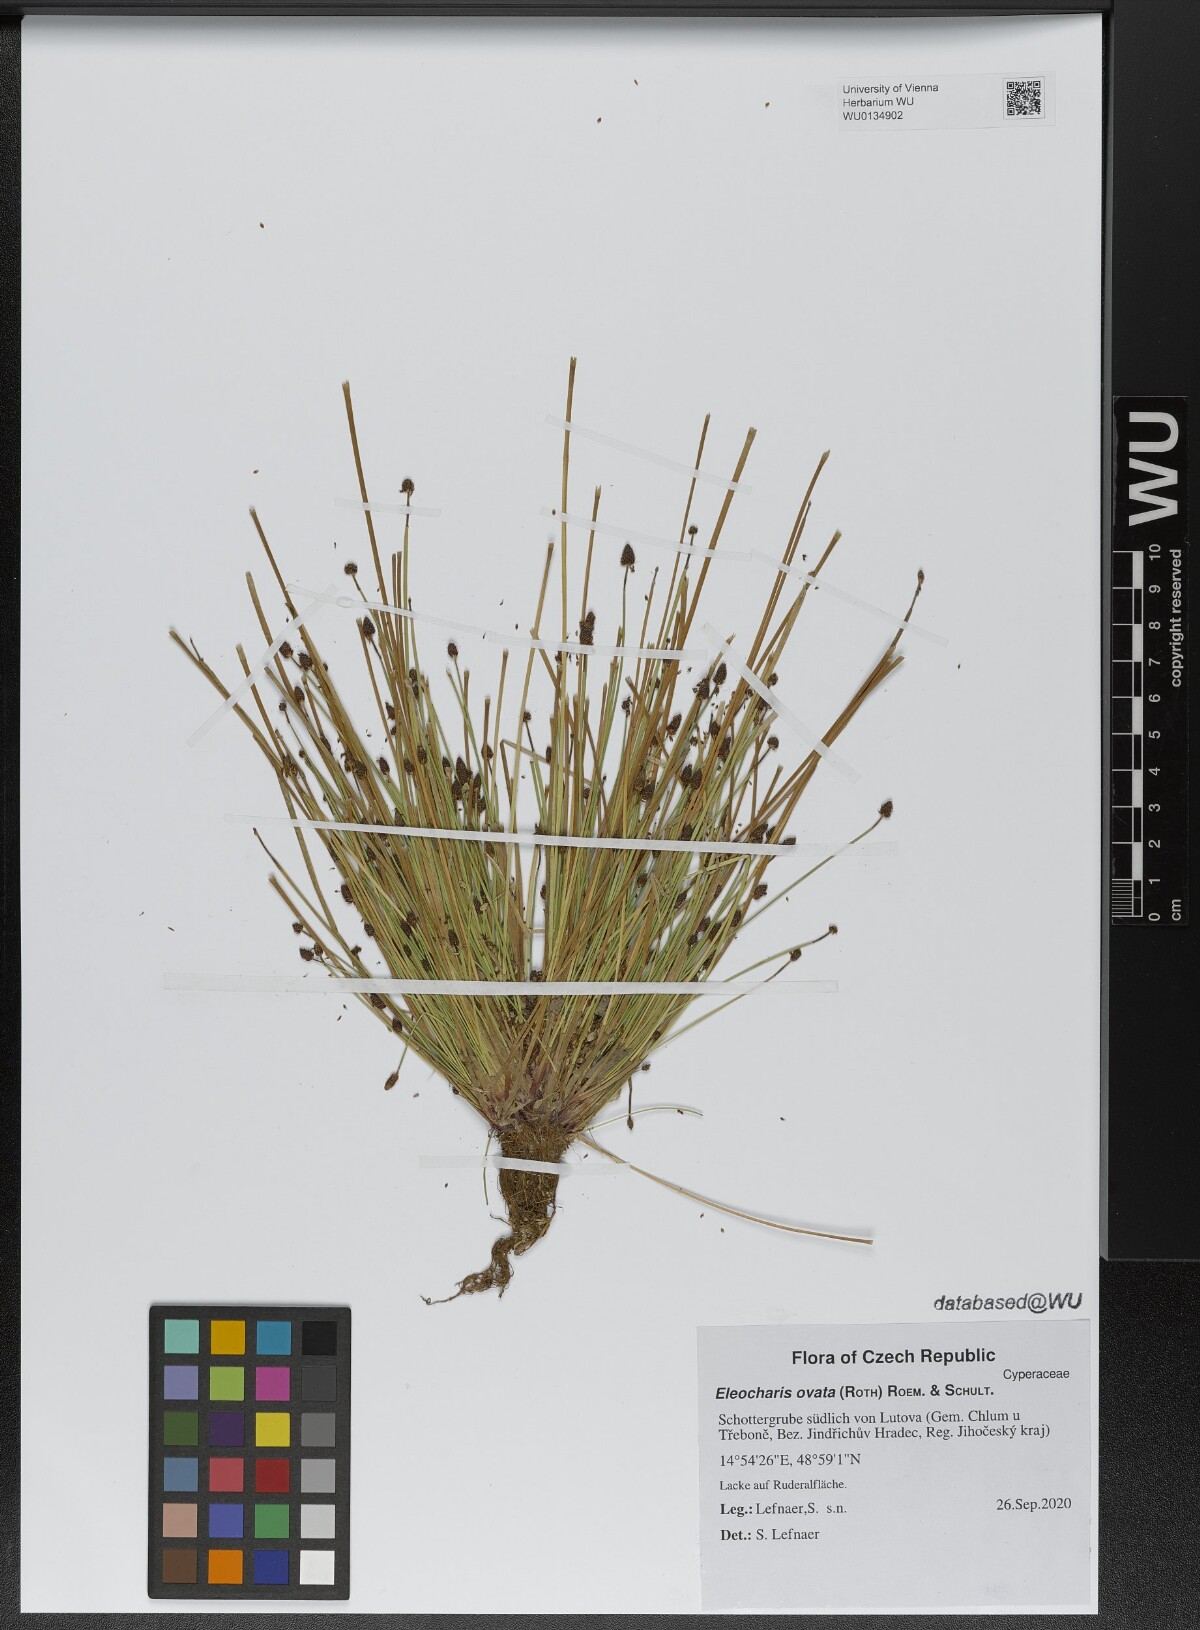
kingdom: Plantae
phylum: Tracheophyta
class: Liliopsida
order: Poales
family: Cyperaceae
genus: Eleocharis
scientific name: Eleocharis ovata
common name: Oval spike-rush
